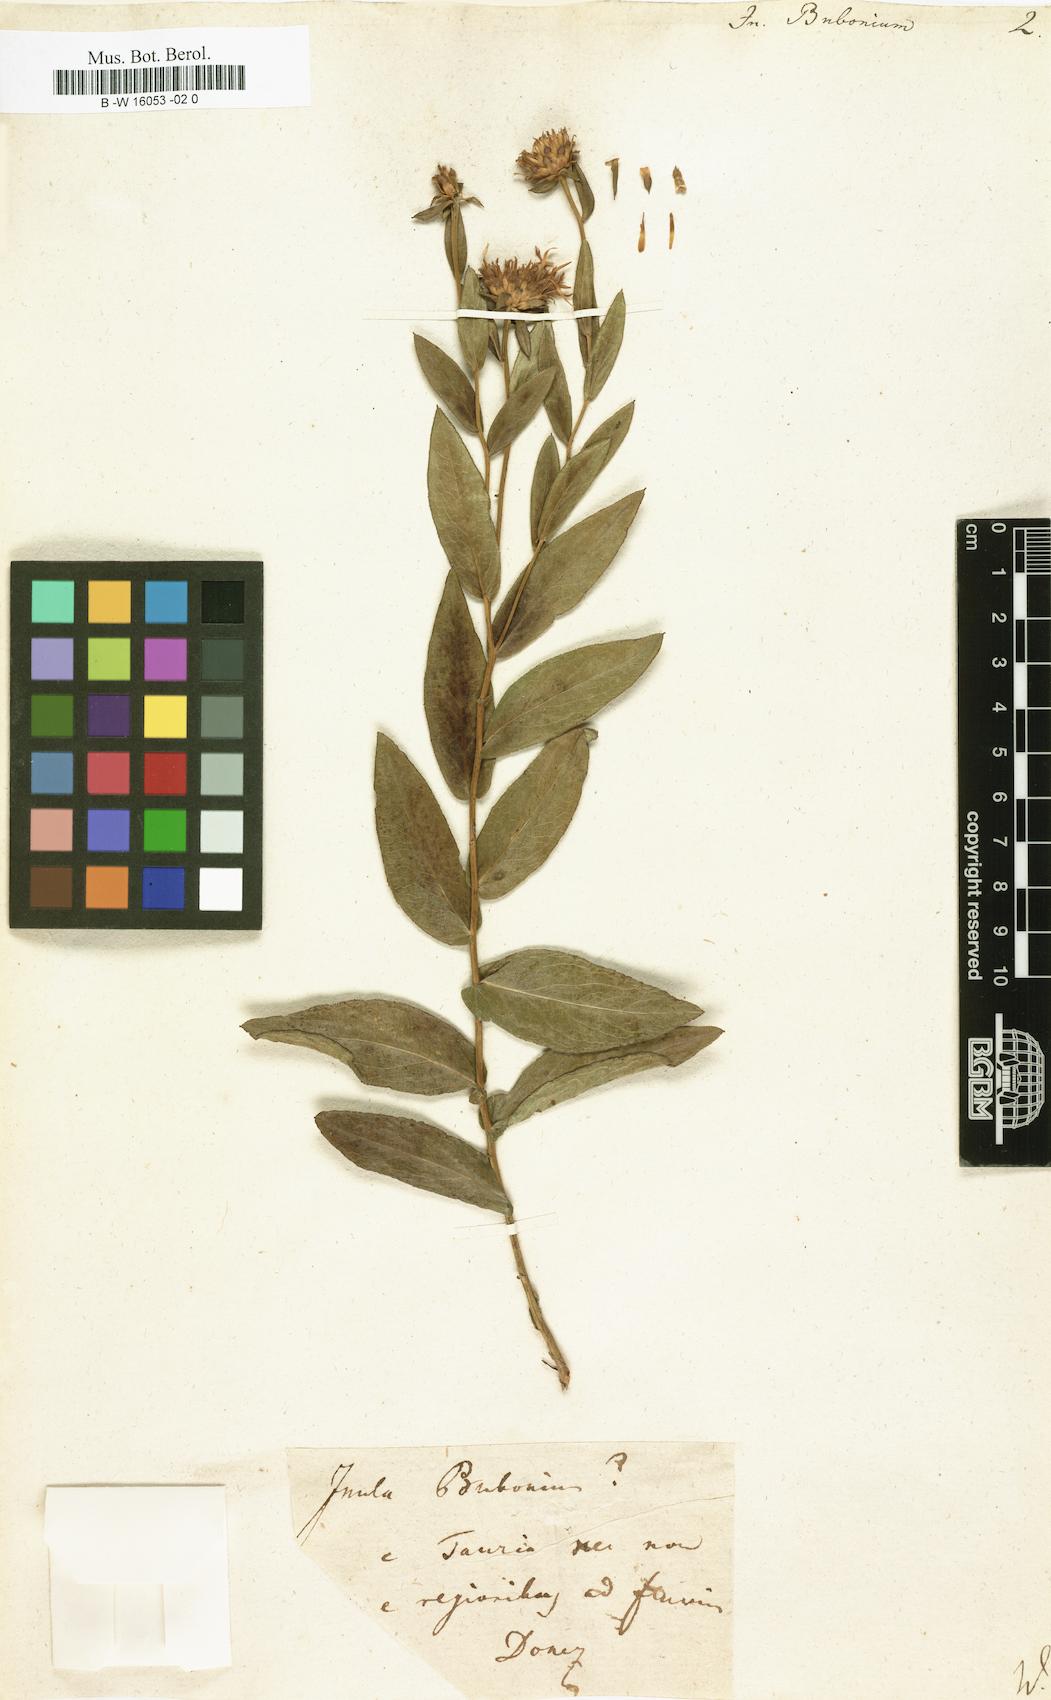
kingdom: Plantae
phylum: Tracheophyta
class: Magnoliopsida
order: Asterales
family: Asteraceae
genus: Pentanema
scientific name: Pentanema
